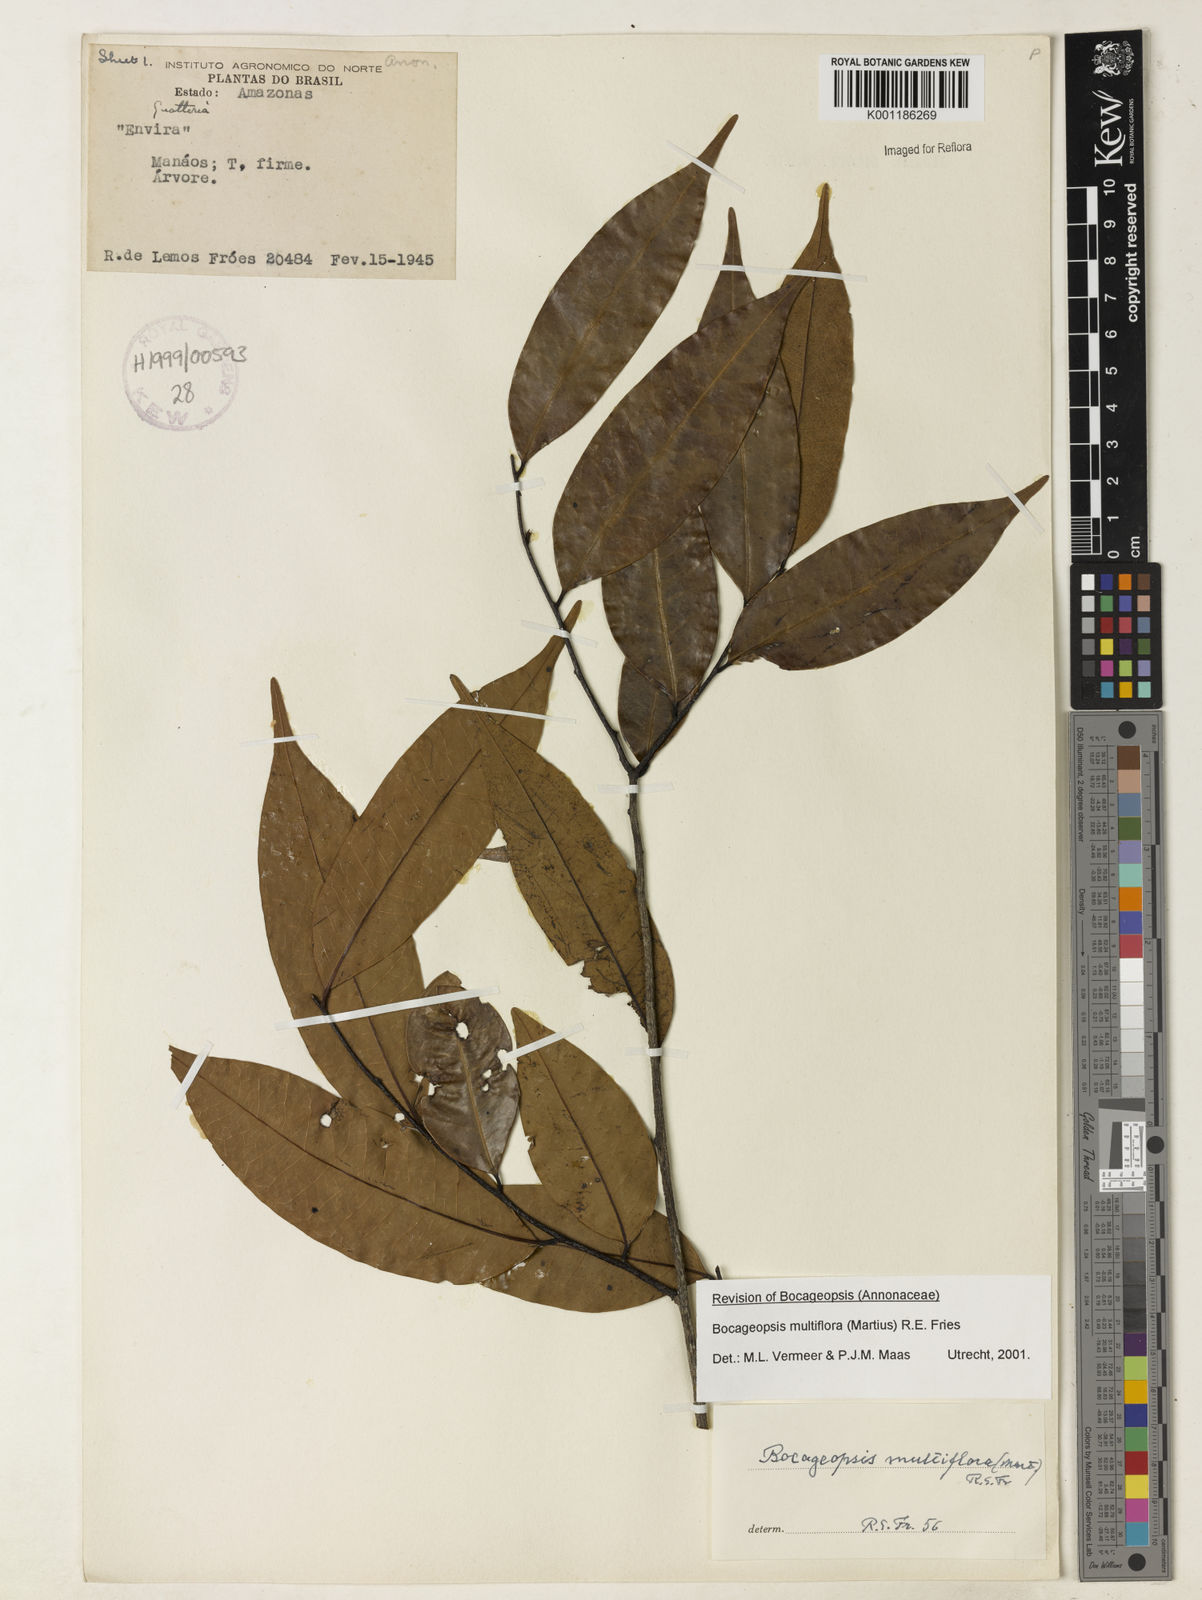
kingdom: Plantae
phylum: Tracheophyta
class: Magnoliopsida
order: Magnoliales
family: Annonaceae
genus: Bocageopsis
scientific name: Bocageopsis multiflora
